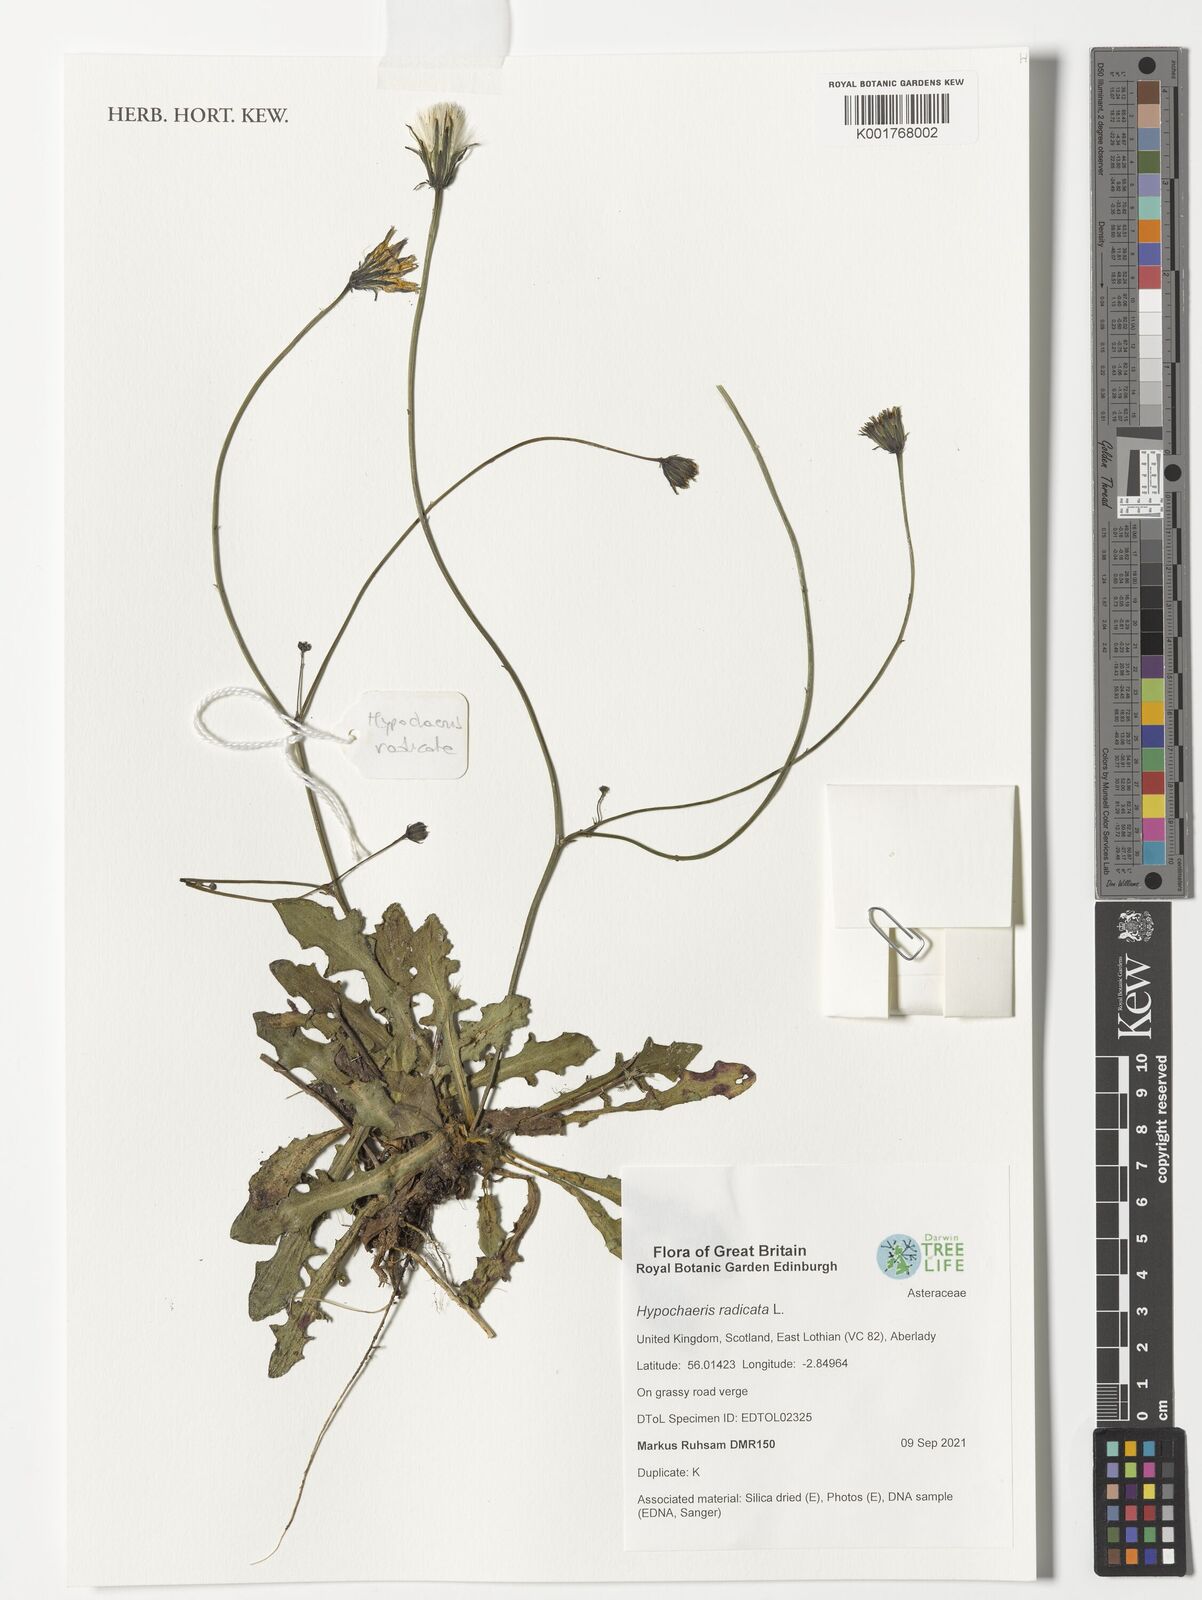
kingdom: Plantae
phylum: Tracheophyta
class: Magnoliopsida
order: Asterales
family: Asteraceae
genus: Hypochaeris
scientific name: Hypochaeris radicata
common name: Flatweed
